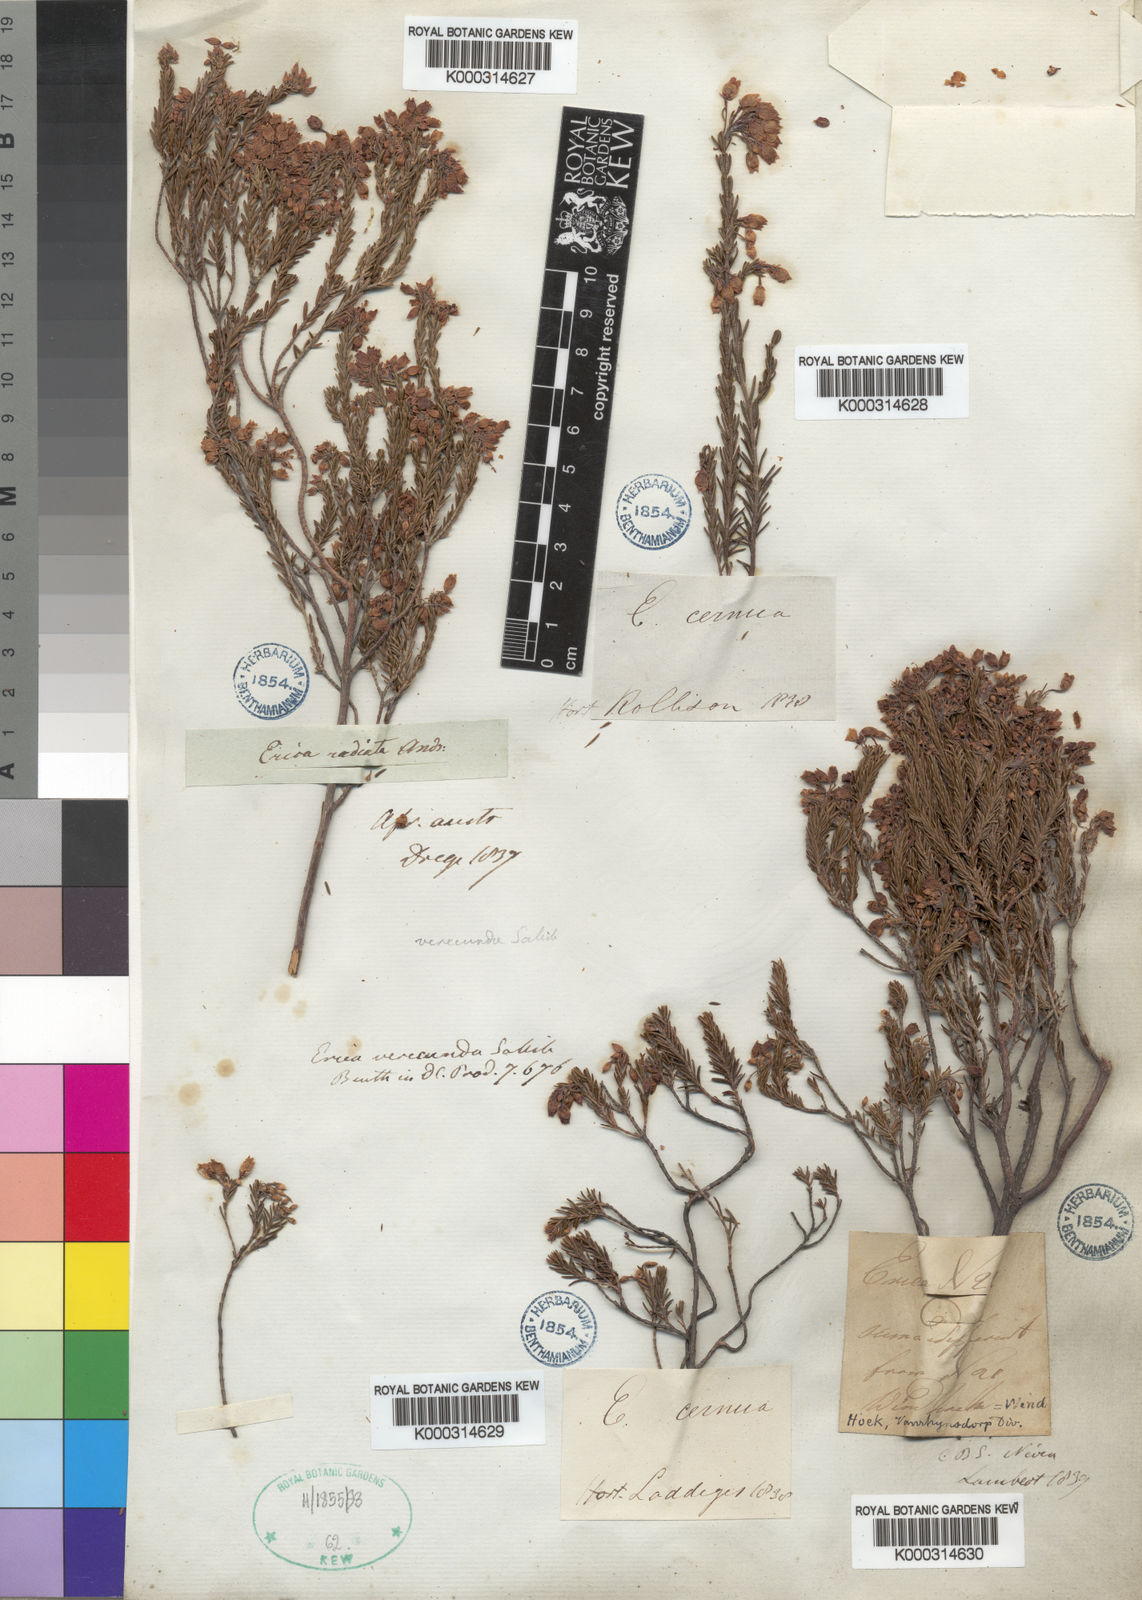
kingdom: Plantae
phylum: Tracheophyta
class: Magnoliopsida
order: Ericales
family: Ericaceae
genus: Erica
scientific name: Erica verecunda
